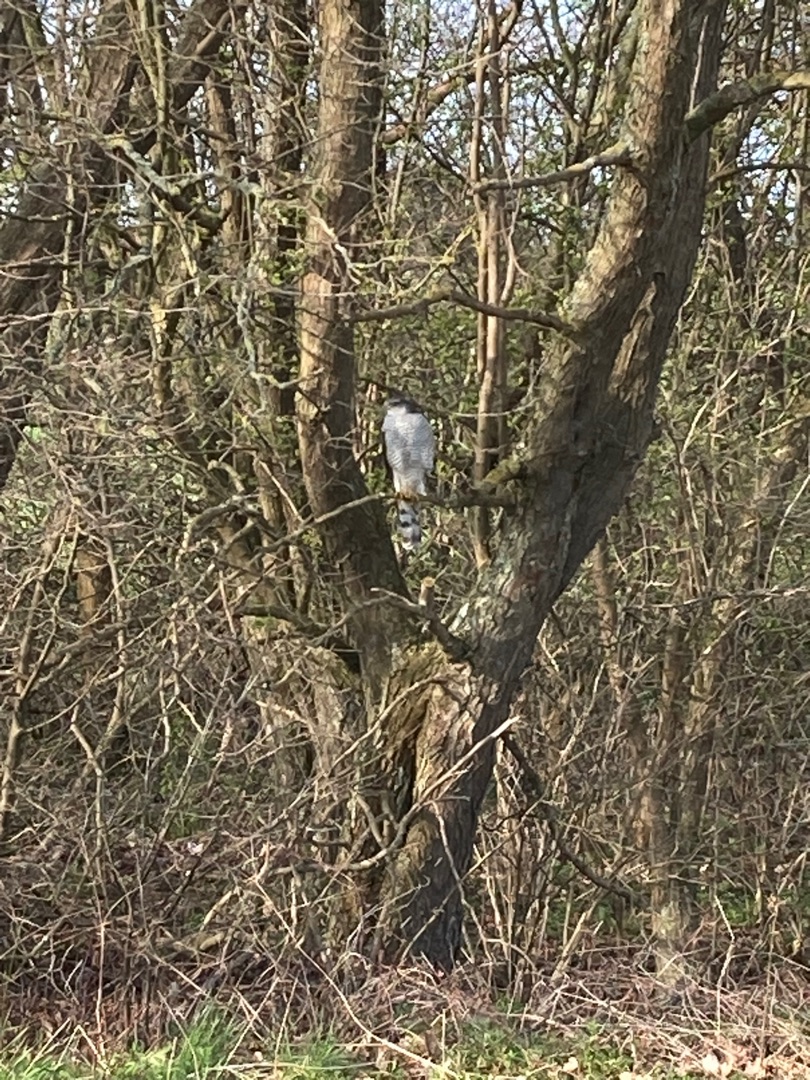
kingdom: Animalia
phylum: Chordata
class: Aves
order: Accipitriformes
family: Accipitridae
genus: Accipiter
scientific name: Accipiter nisus
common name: Spurvehøg
